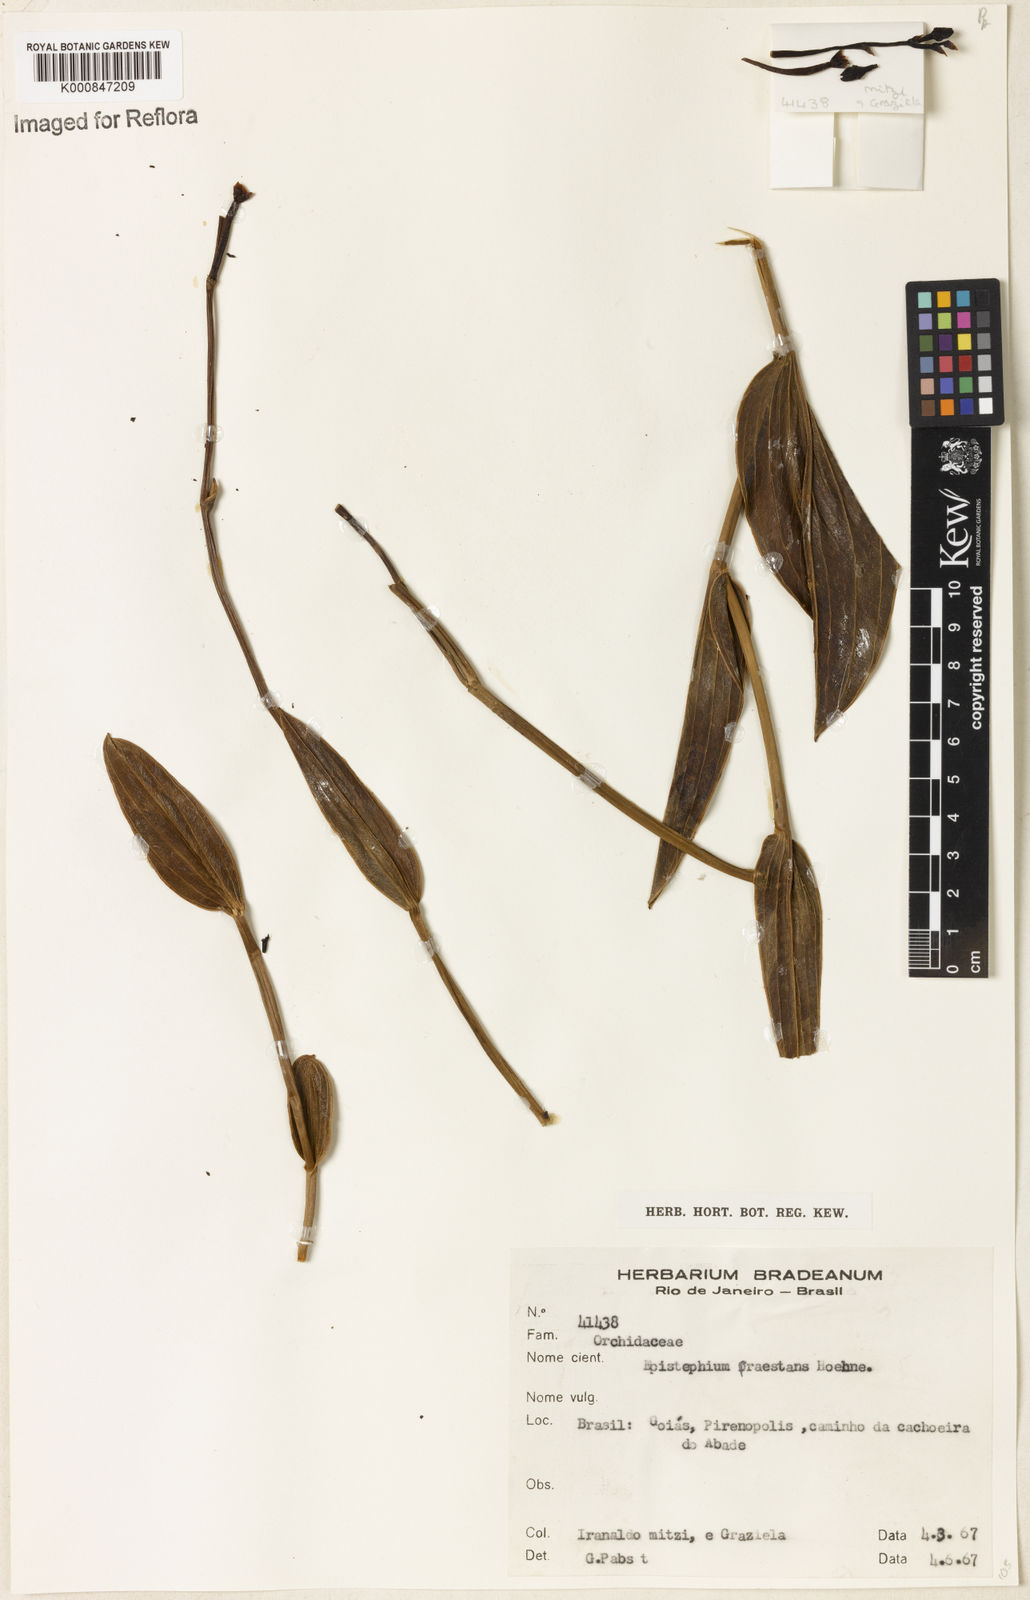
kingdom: Plantae
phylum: Tracheophyta
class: Liliopsida
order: Asparagales
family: Orchidaceae
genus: Epistephium
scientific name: Epistephium sclerophyllum
